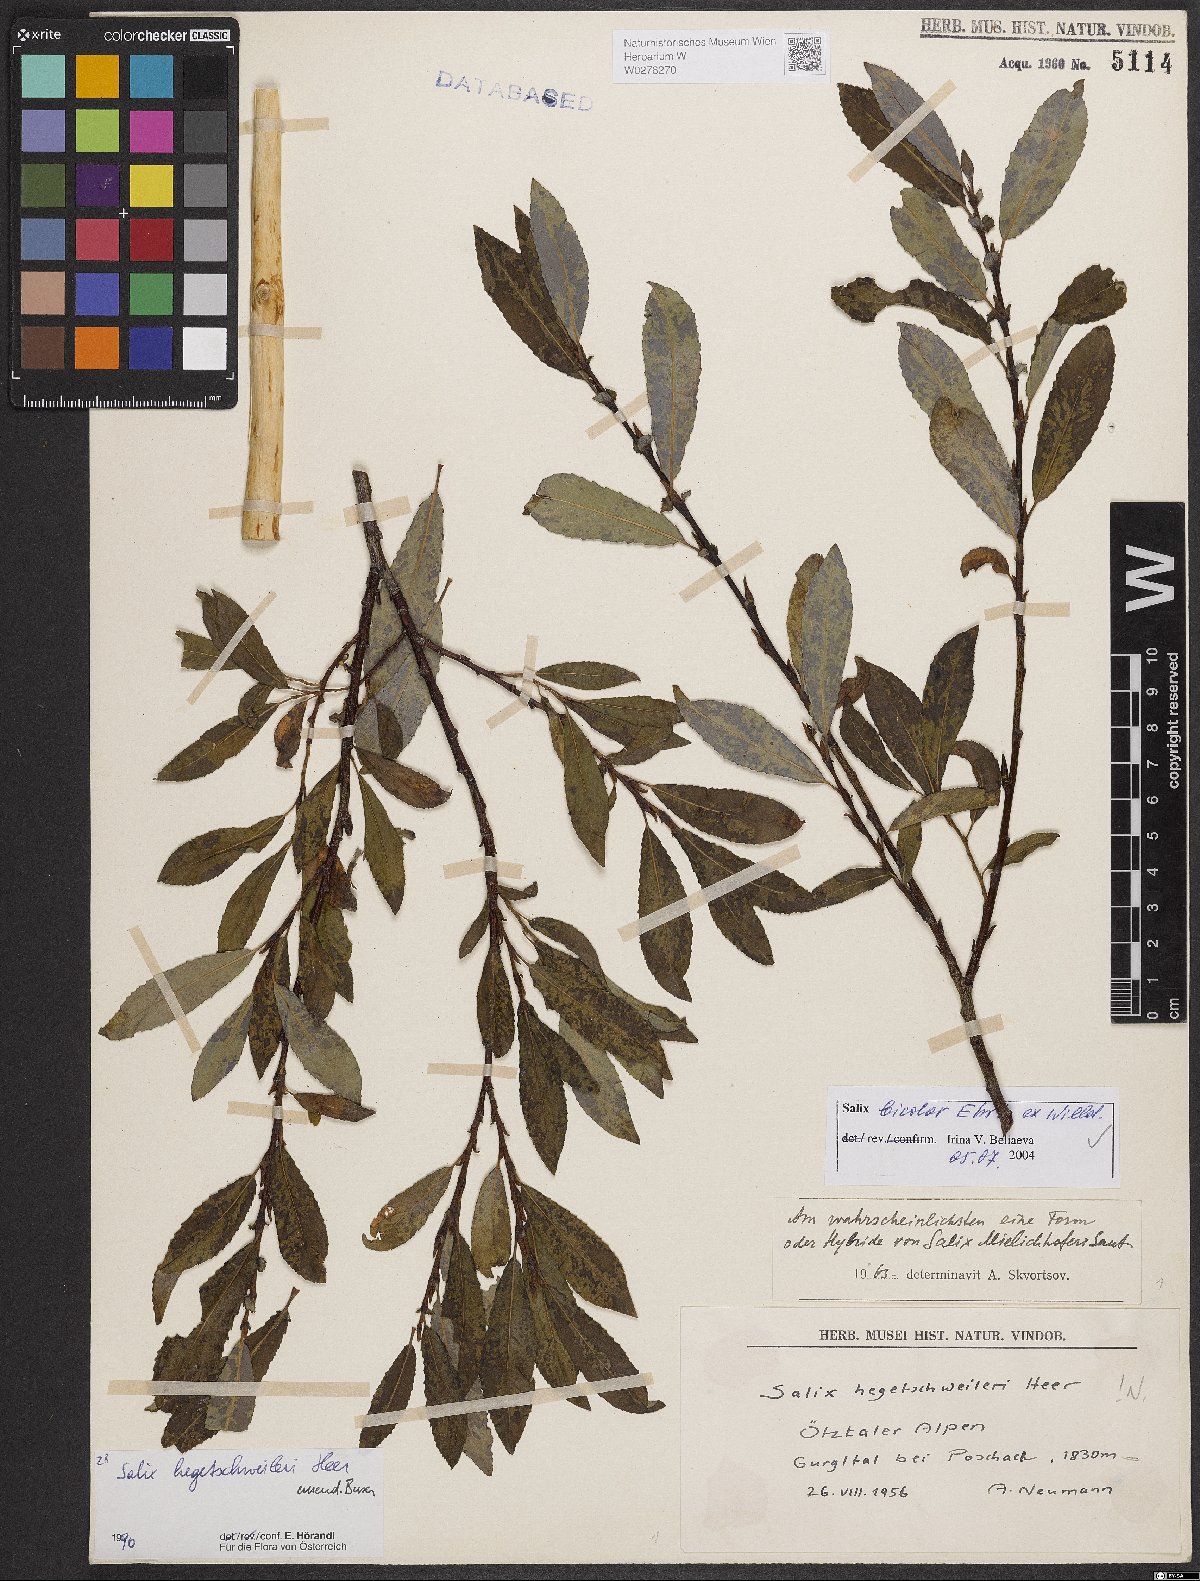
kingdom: Plantae
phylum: Tracheophyta
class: Magnoliopsida
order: Malpighiales
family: Salicaceae
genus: Salix
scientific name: Salix bicolor
